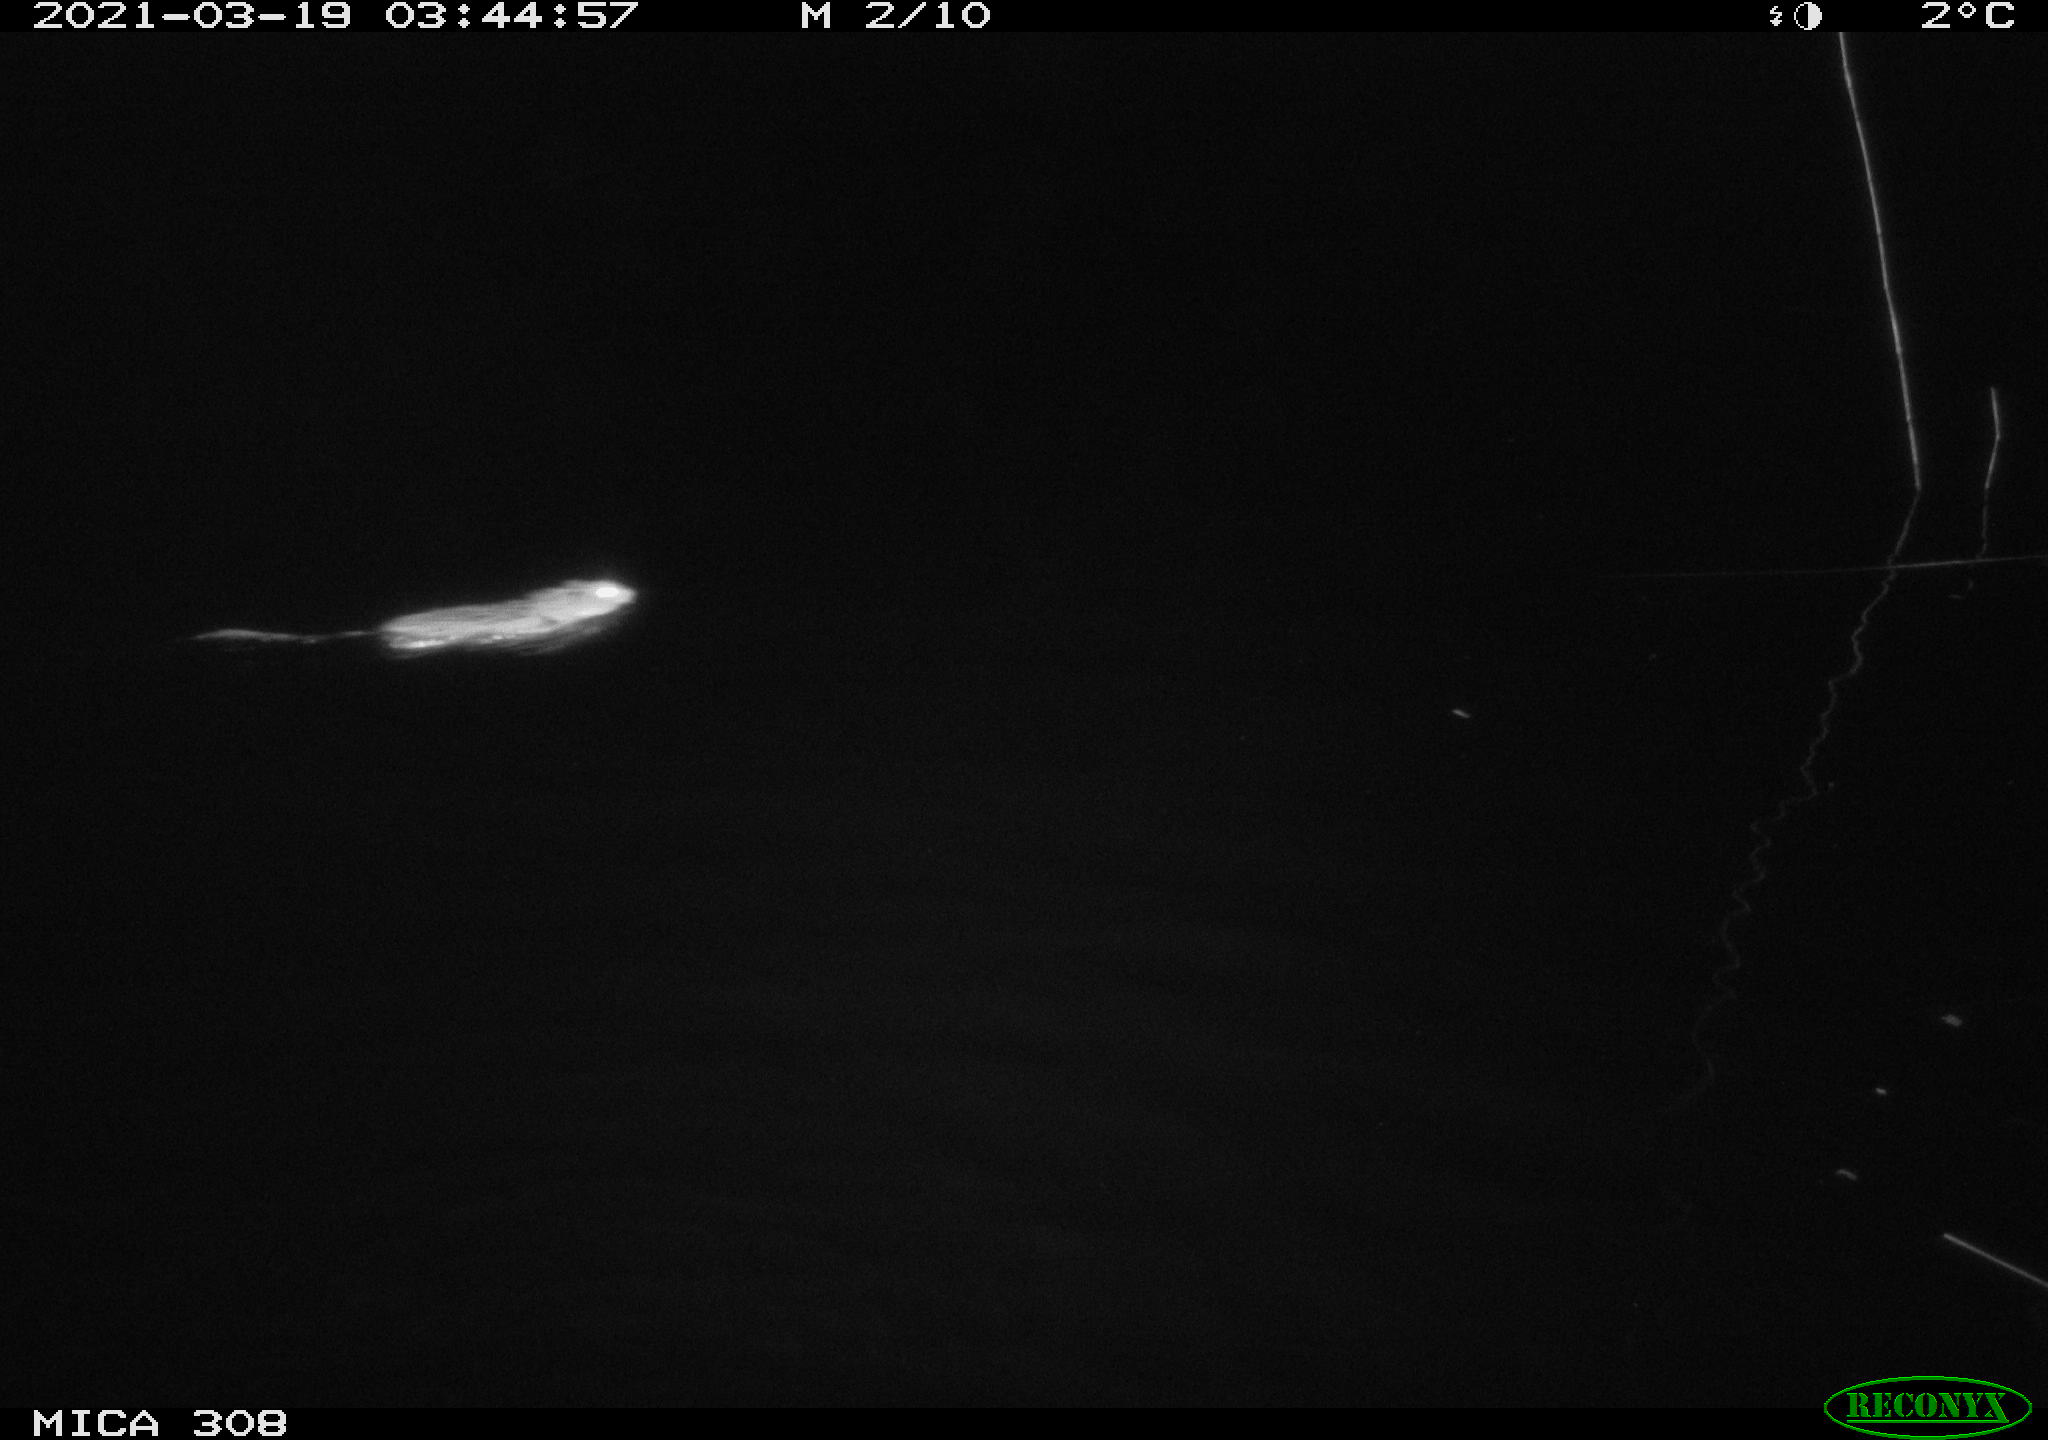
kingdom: Animalia
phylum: Chordata
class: Mammalia
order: Rodentia
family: Cricetidae
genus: Ondatra
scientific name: Ondatra zibethicus
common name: Muskrat
